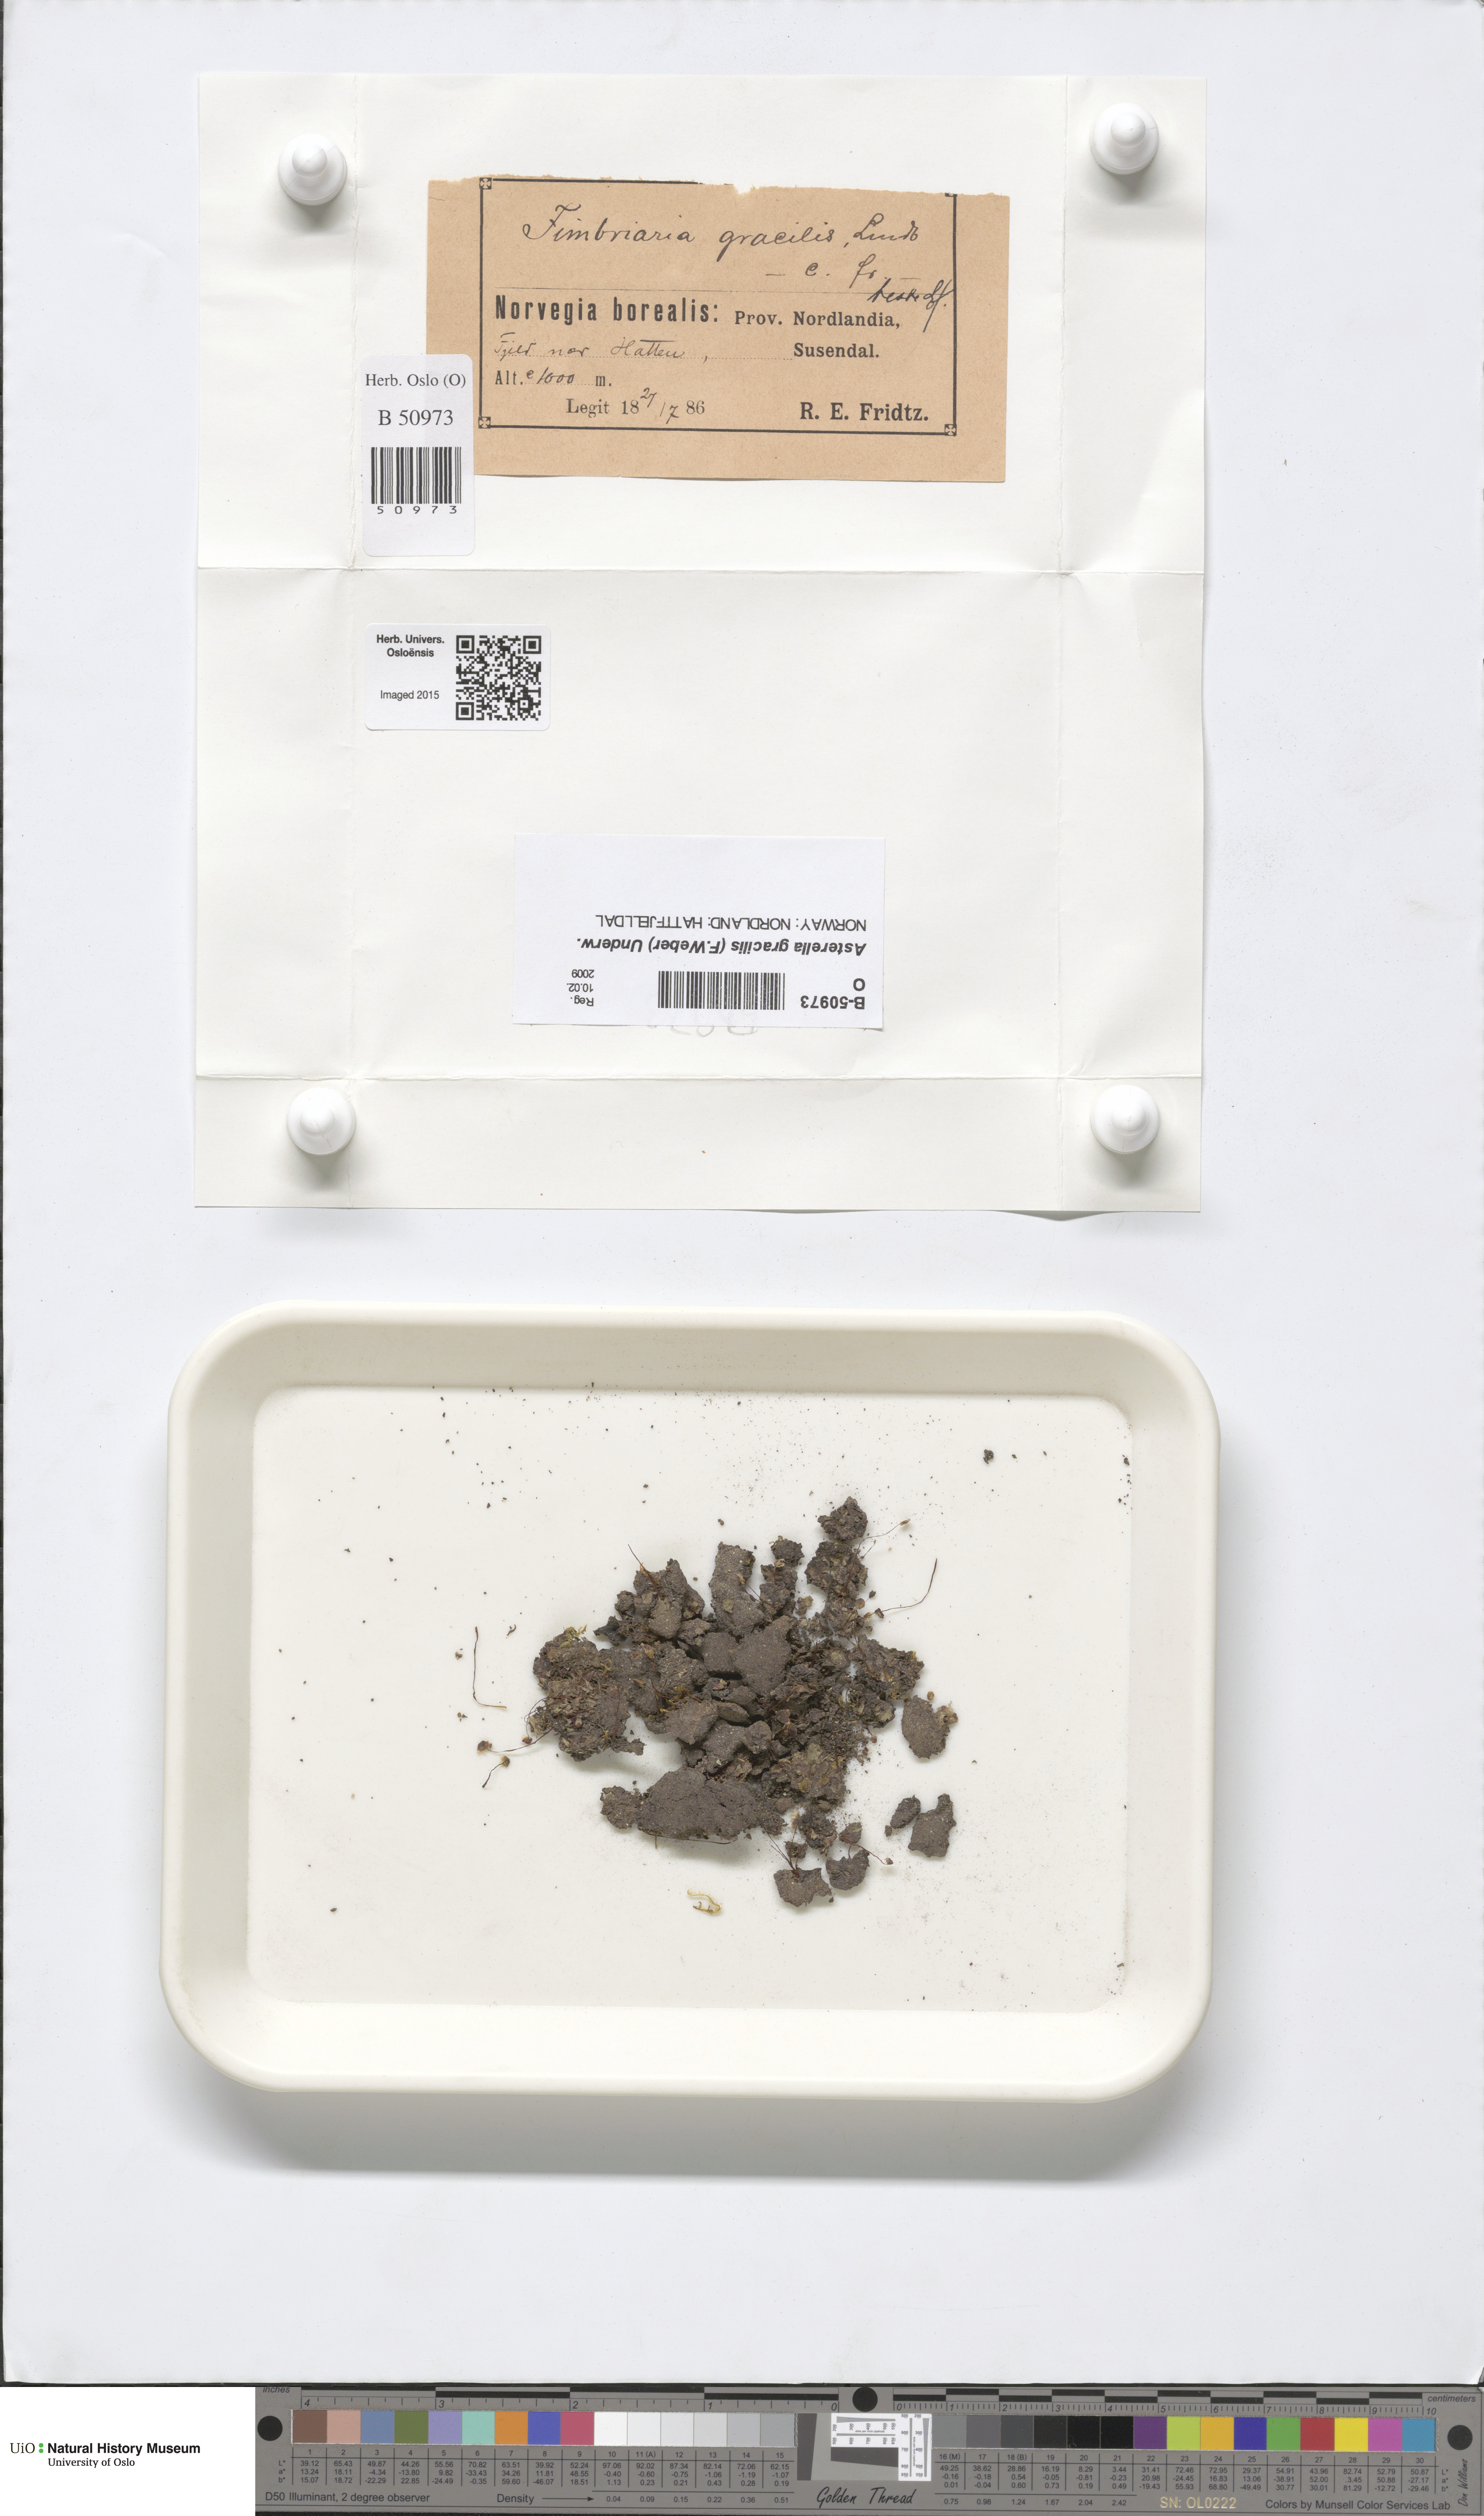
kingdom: Plantae
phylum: Marchantiophyta
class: Marchantiopsida
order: Marchantiales
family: Aytoniaceae
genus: Mannia
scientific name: Mannia gracilis
